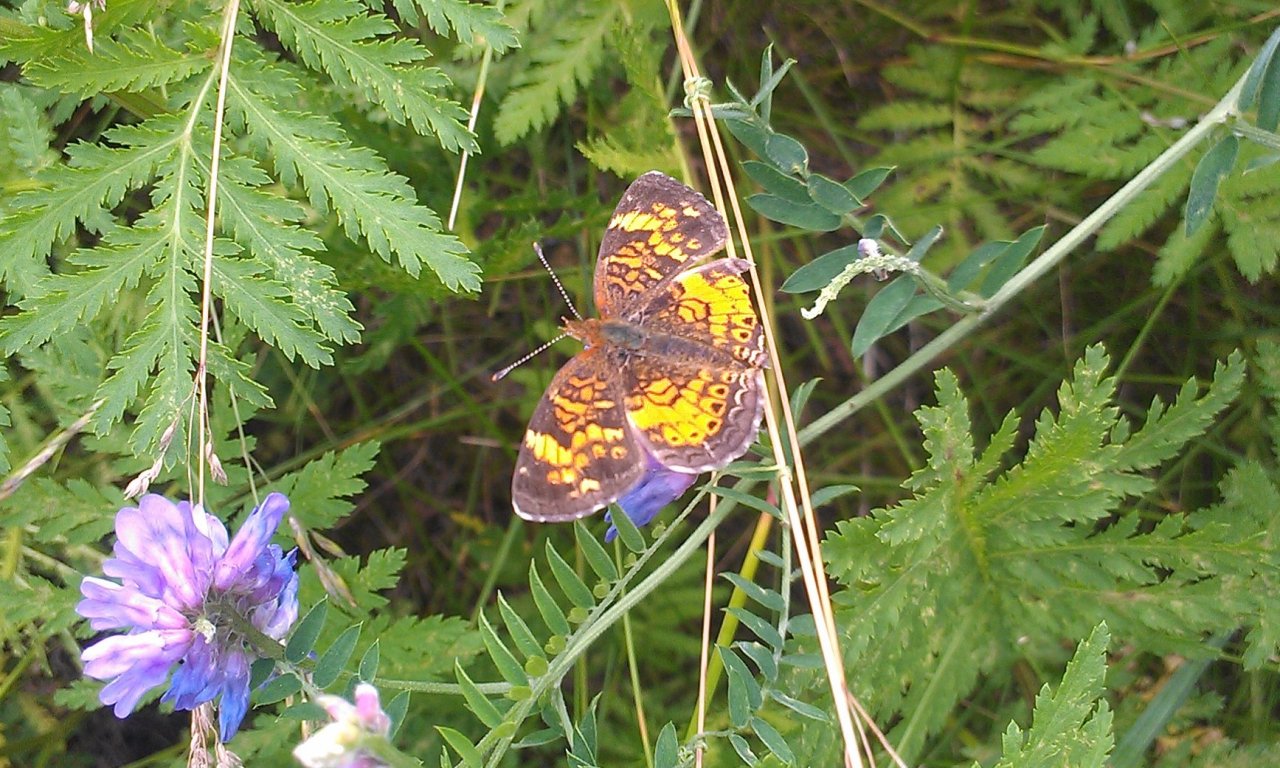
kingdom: Animalia
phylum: Arthropoda
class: Insecta
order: Lepidoptera
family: Nymphalidae
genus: Phyciodes
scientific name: Phyciodes tharos
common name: Northern Crescent
